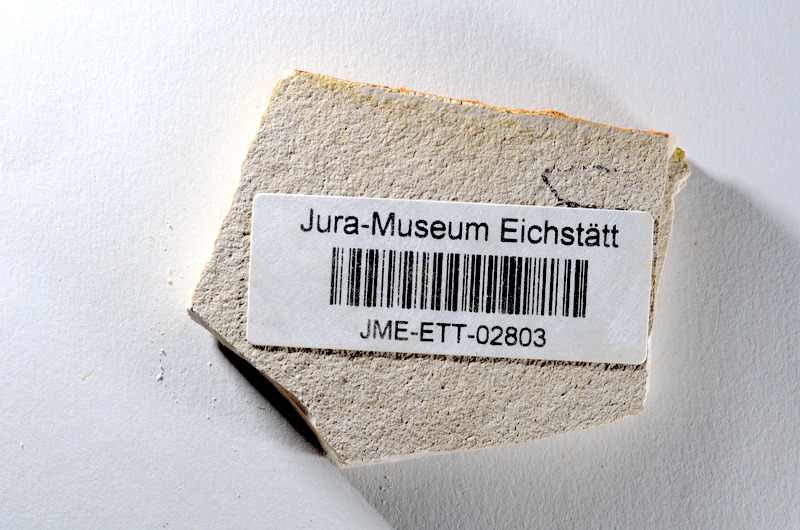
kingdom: Animalia
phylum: Chordata
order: Salmoniformes
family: Orthogonikleithridae
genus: Orthogonikleithrus
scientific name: Orthogonikleithrus hoelli
